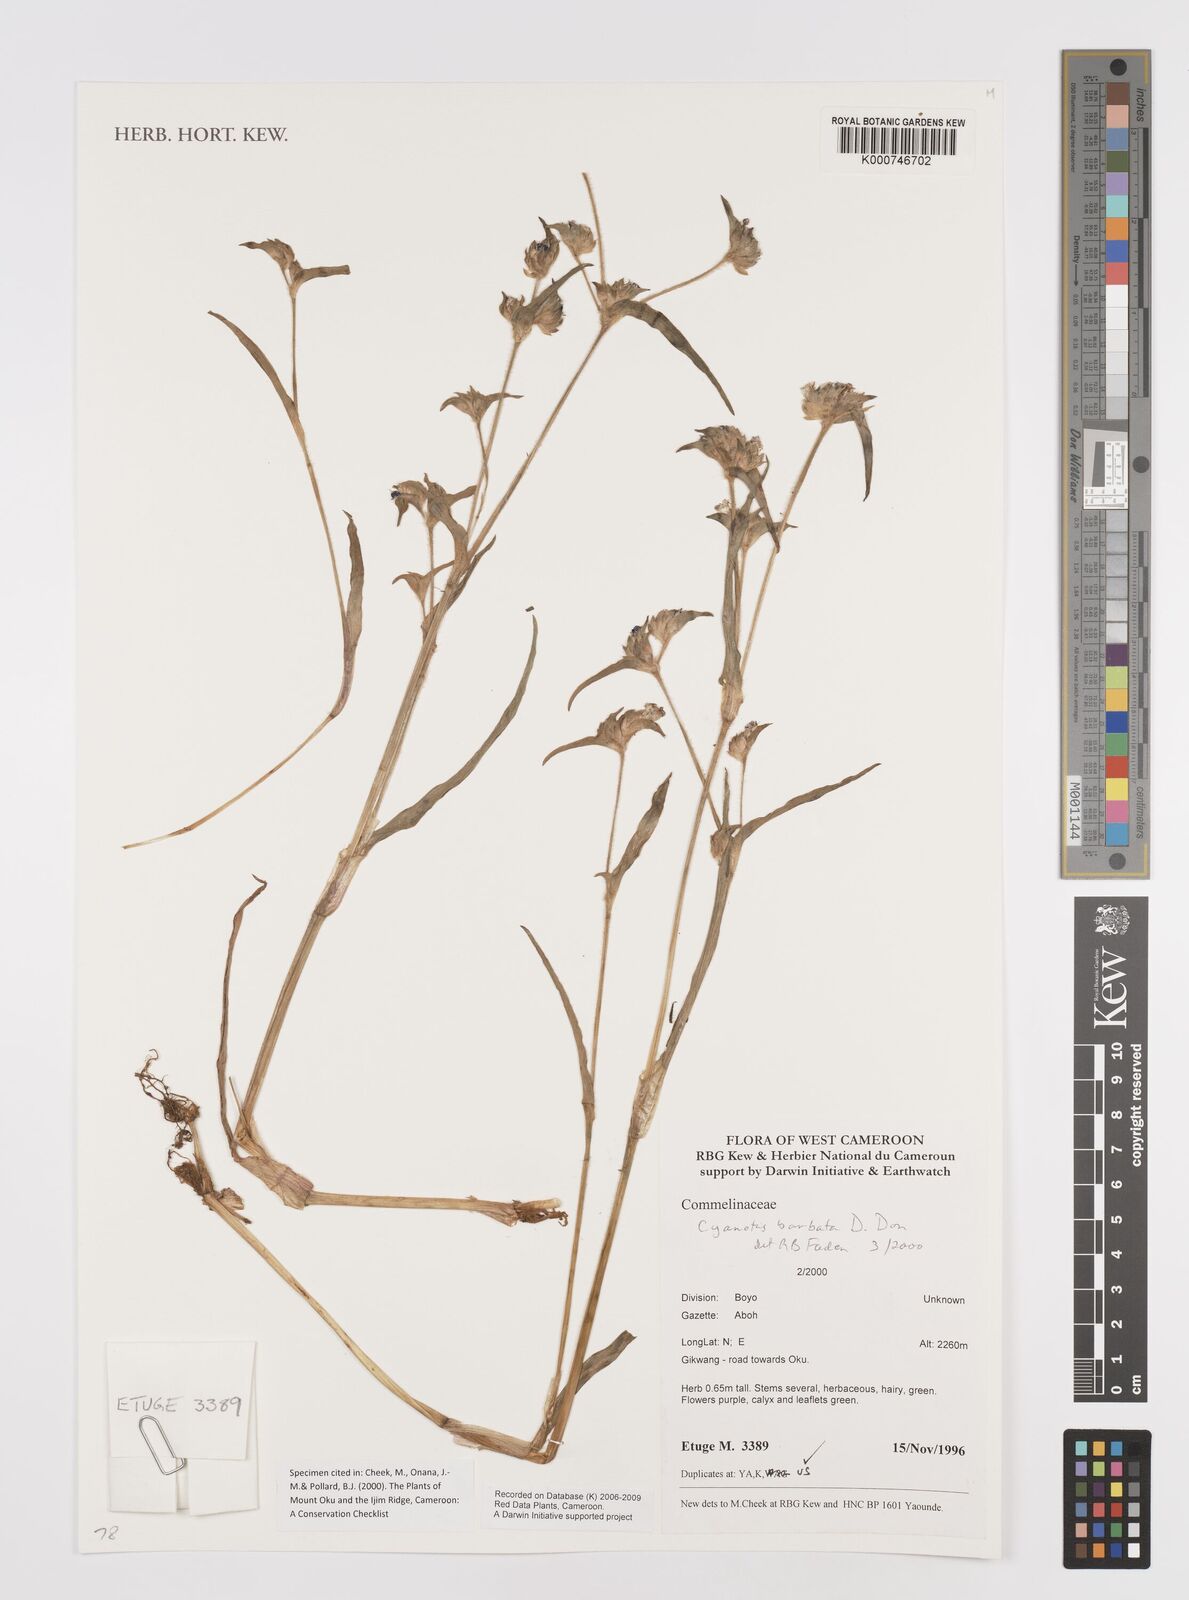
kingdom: Plantae
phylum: Tracheophyta
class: Liliopsida
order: Commelinales
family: Commelinaceae
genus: Cyanotis
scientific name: Cyanotis vaga
